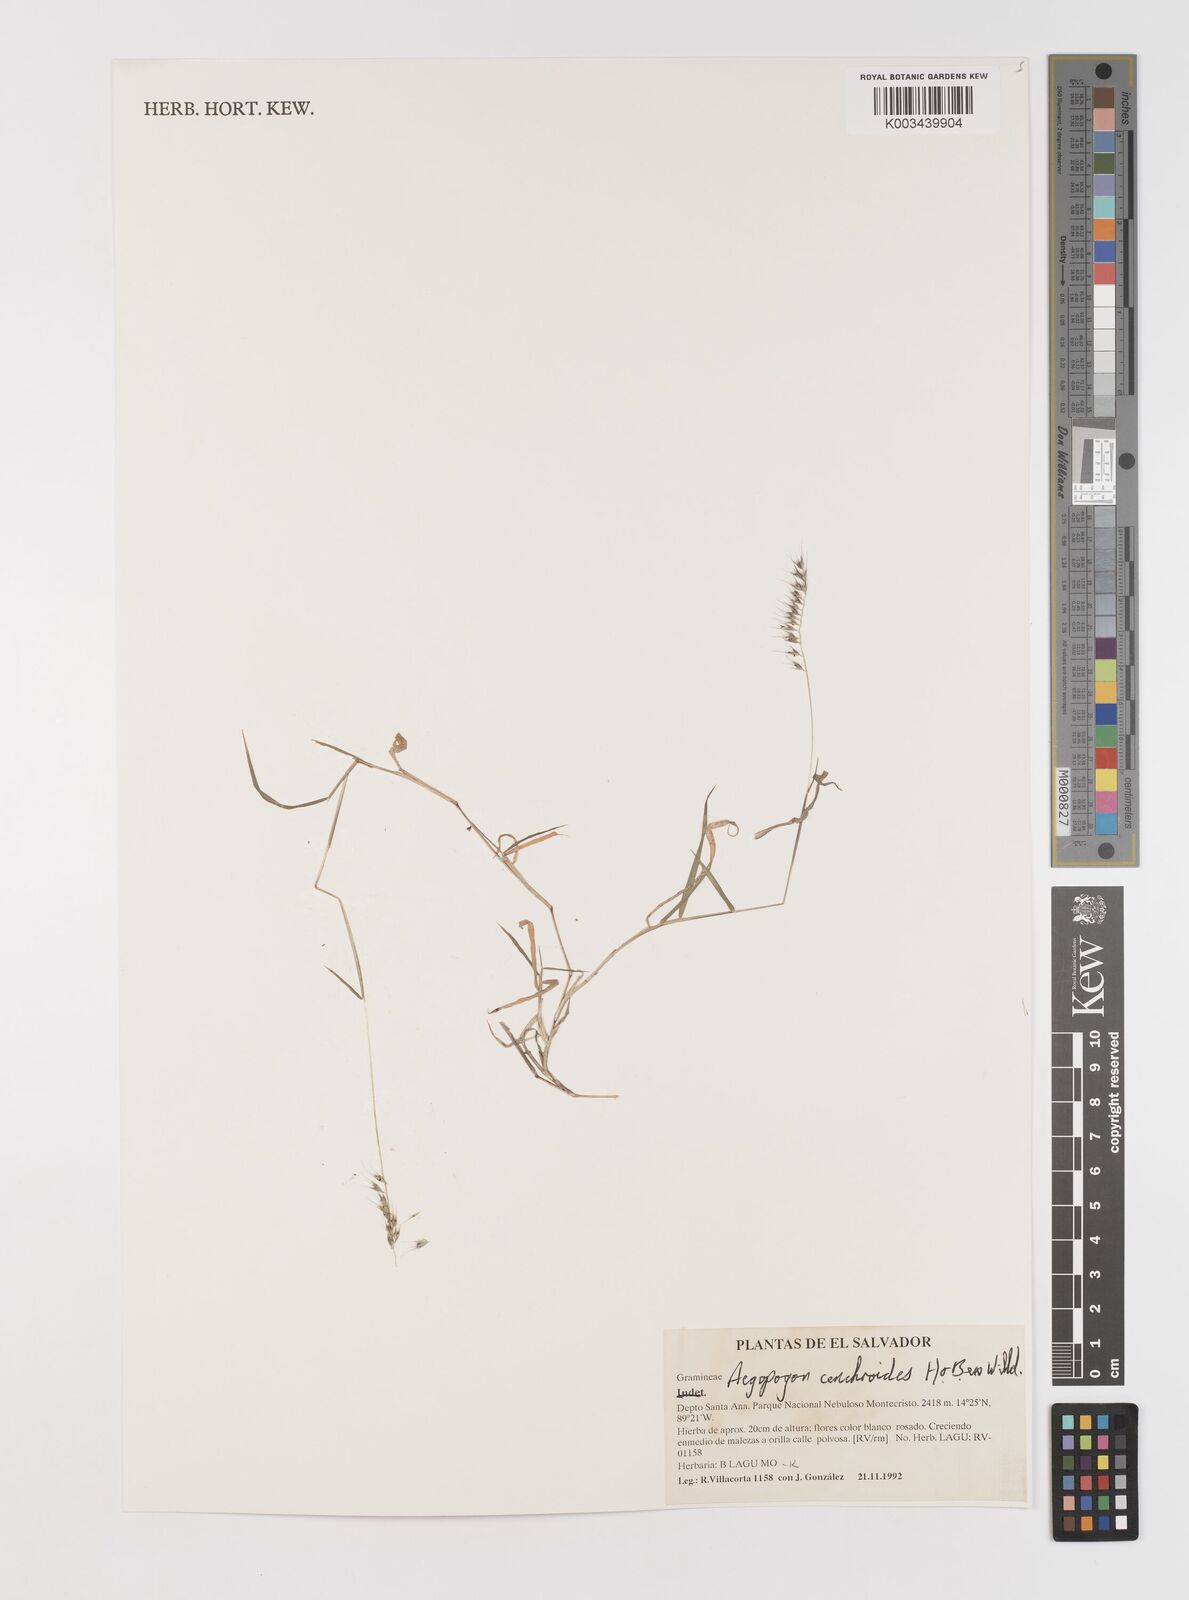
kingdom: Plantae
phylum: Tracheophyta
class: Liliopsida
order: Poales
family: Poaceae
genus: Muhlenbergia
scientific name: Muhlenbergia cenchroides
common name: Relaxgrass
